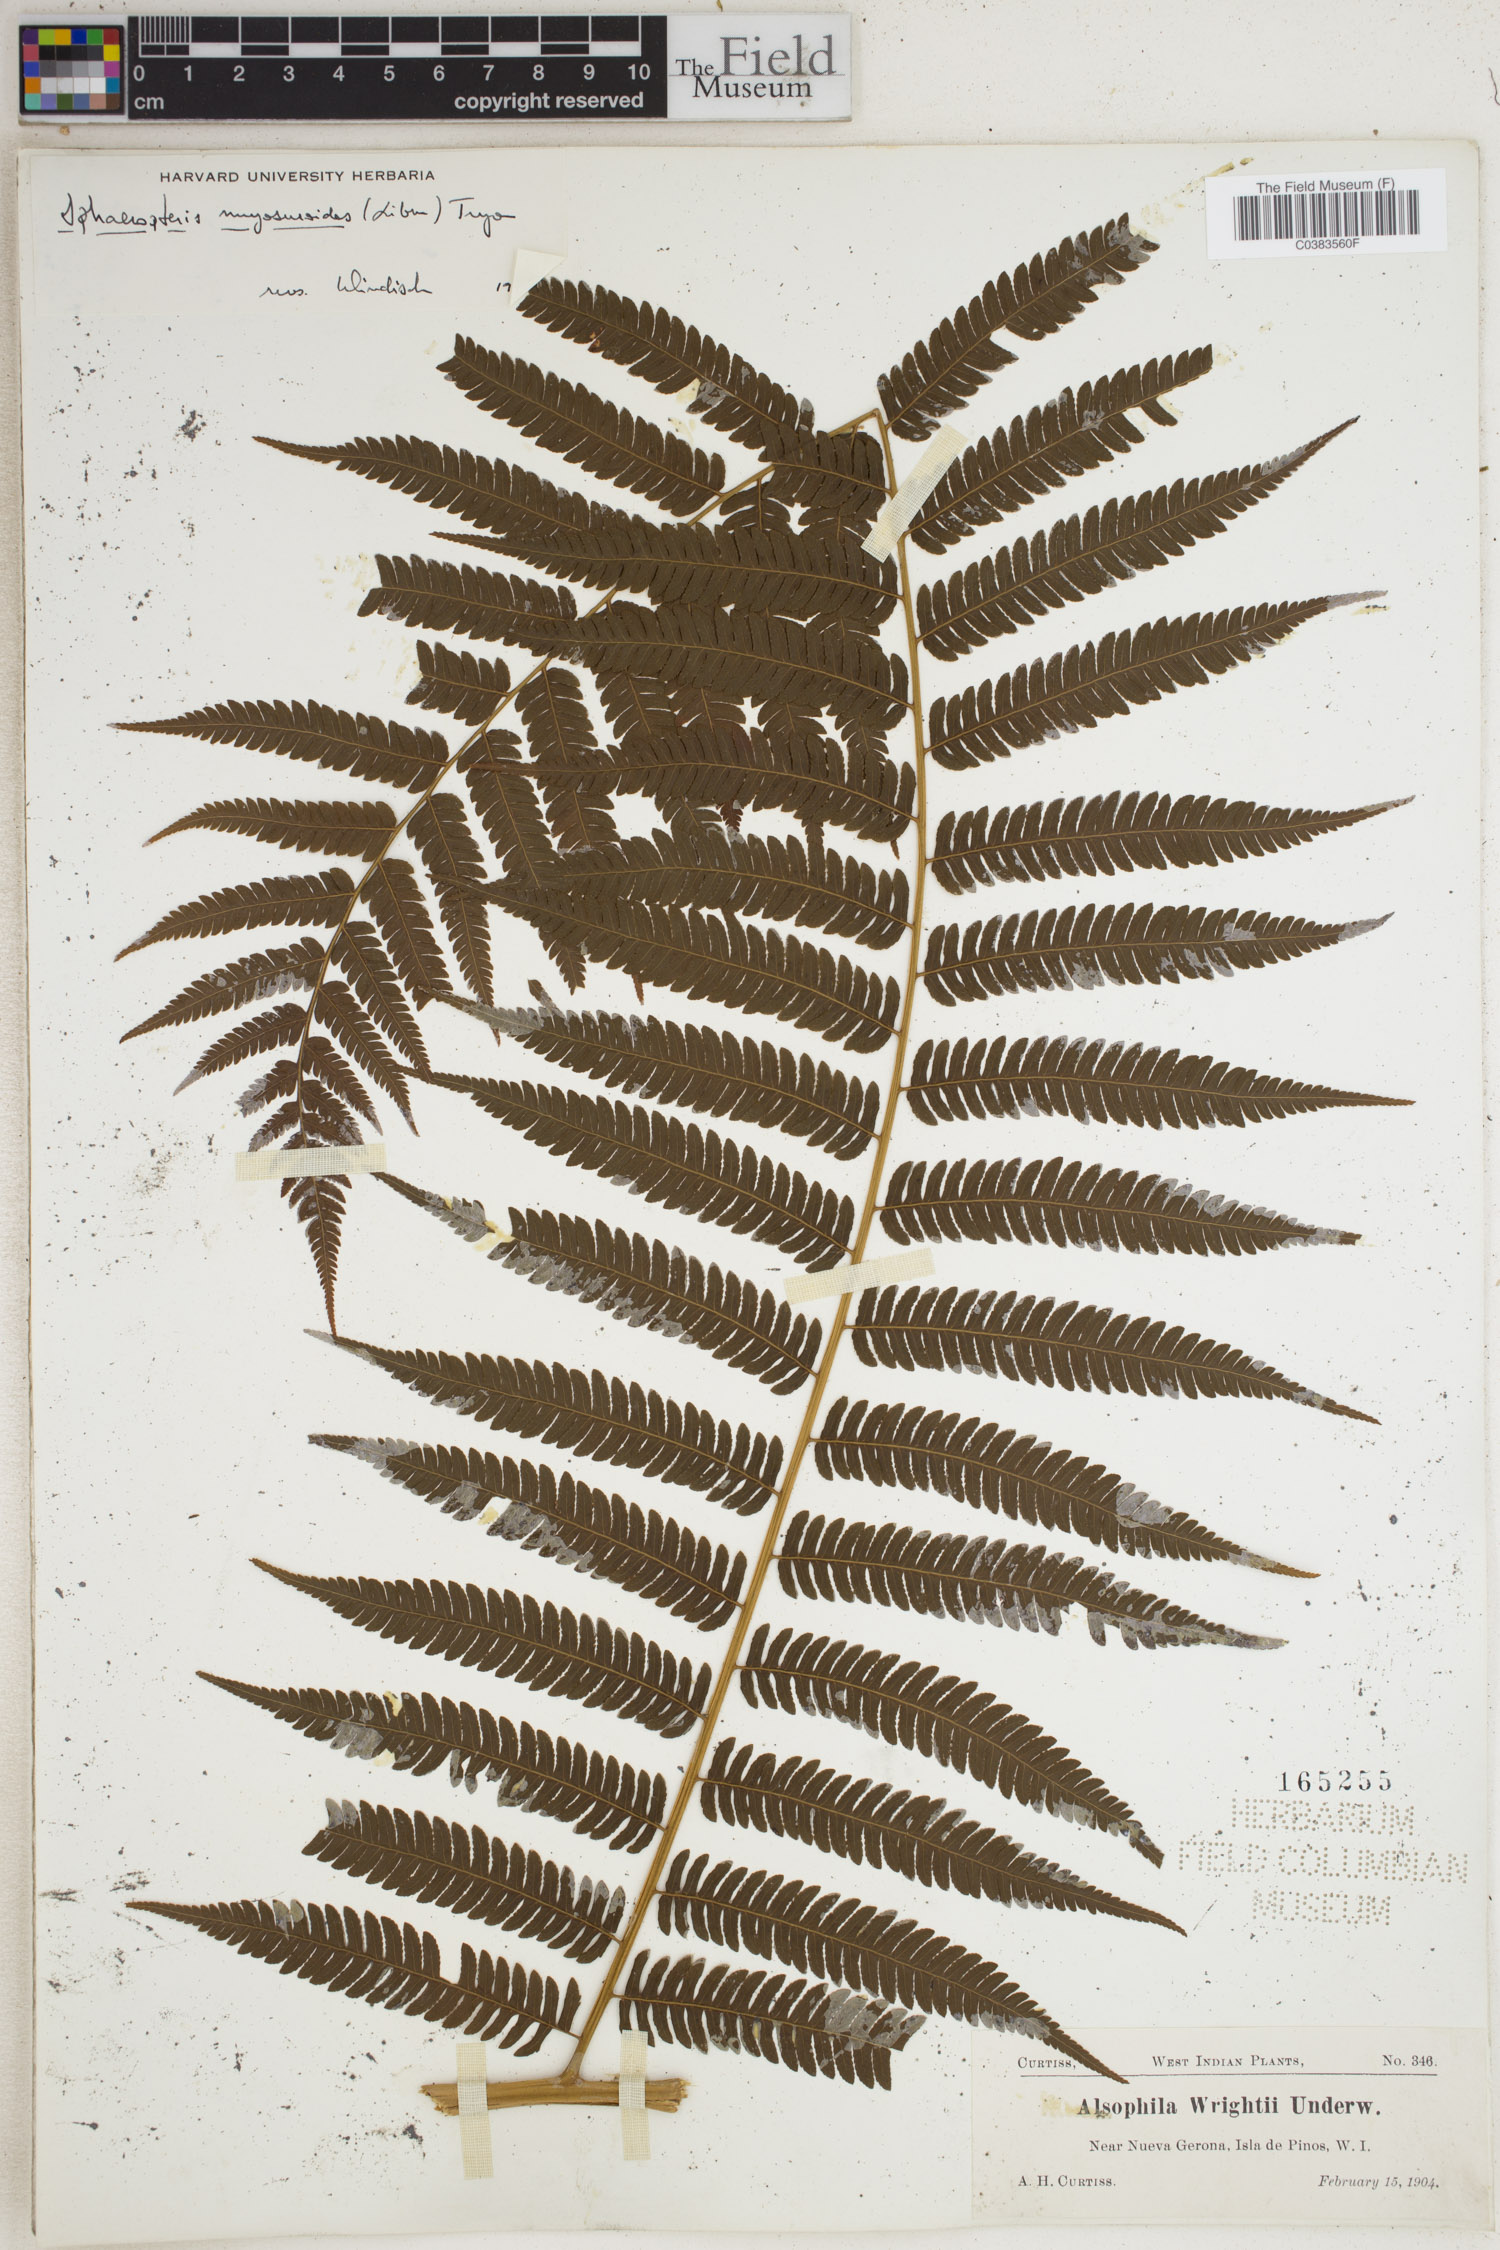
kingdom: Plantae
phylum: Tracheophyta
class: Polypodiopsida
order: Cyatheales
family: Cyatheaceae
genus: Sphaeropteris
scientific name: Sphaeropteris myosuroides
